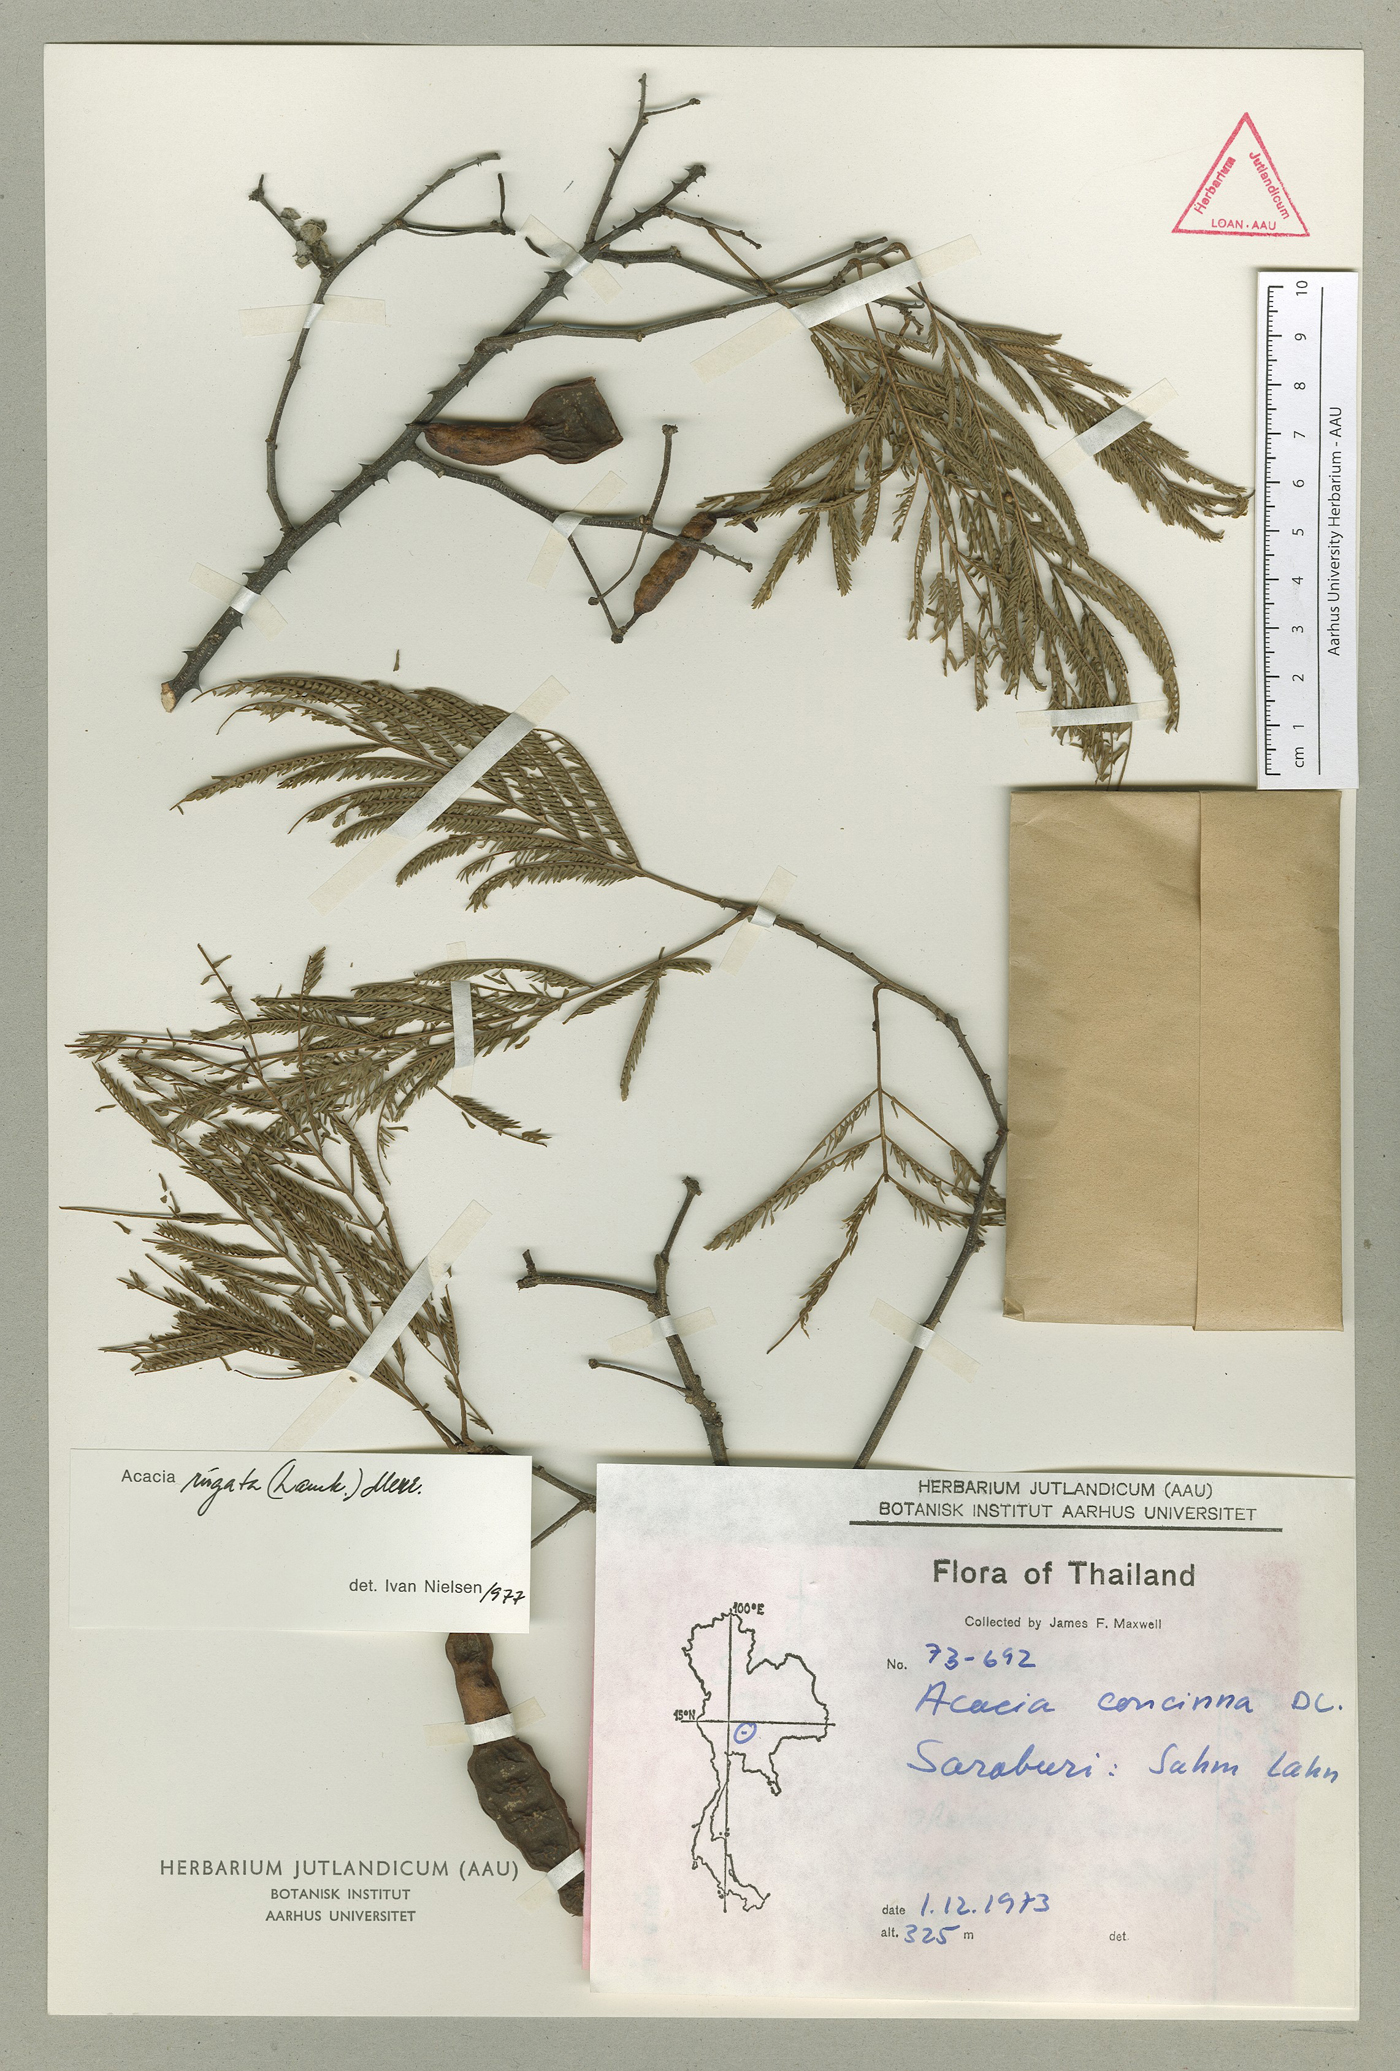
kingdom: Plantae
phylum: Tracheophyta
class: Magnoliopsida
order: Fabales
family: Fabaceae
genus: Senegalia
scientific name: Senegalia rugata
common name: Soap-pod
